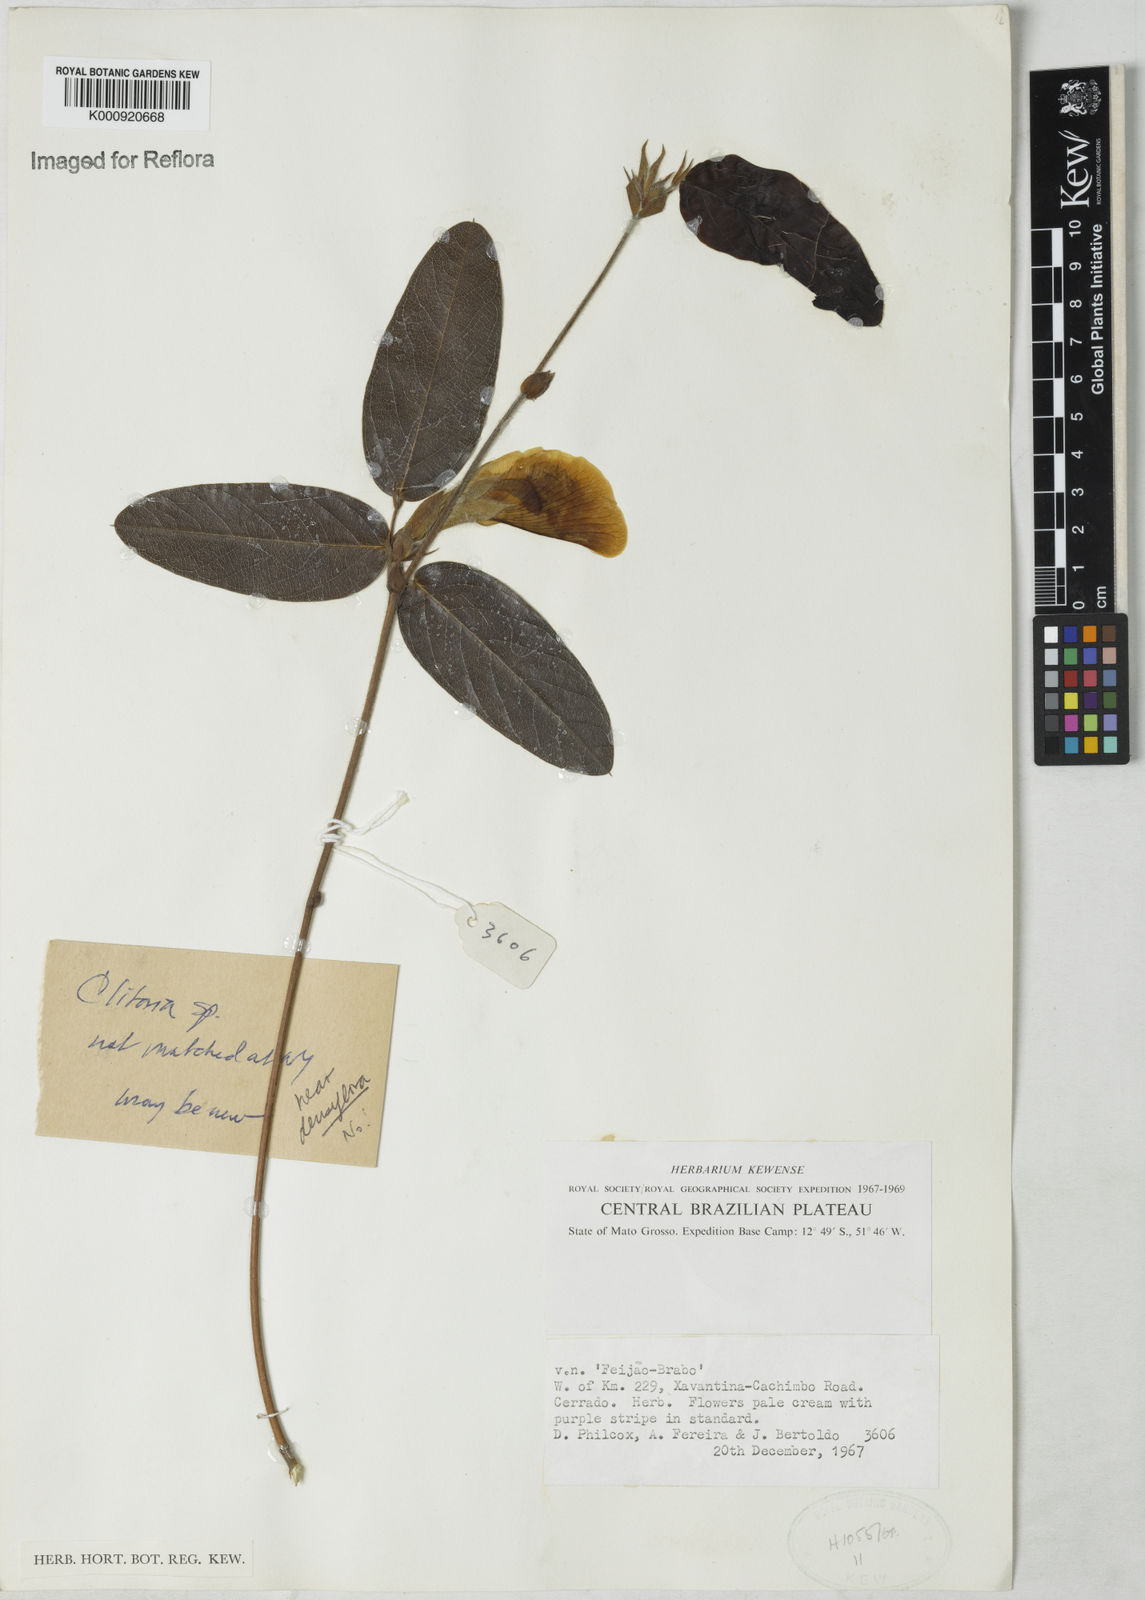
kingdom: Plantae
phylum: Tracheophyta
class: Magnoliopsida
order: Fabales
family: Fabaceae
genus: Clitoria
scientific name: Clitoria
